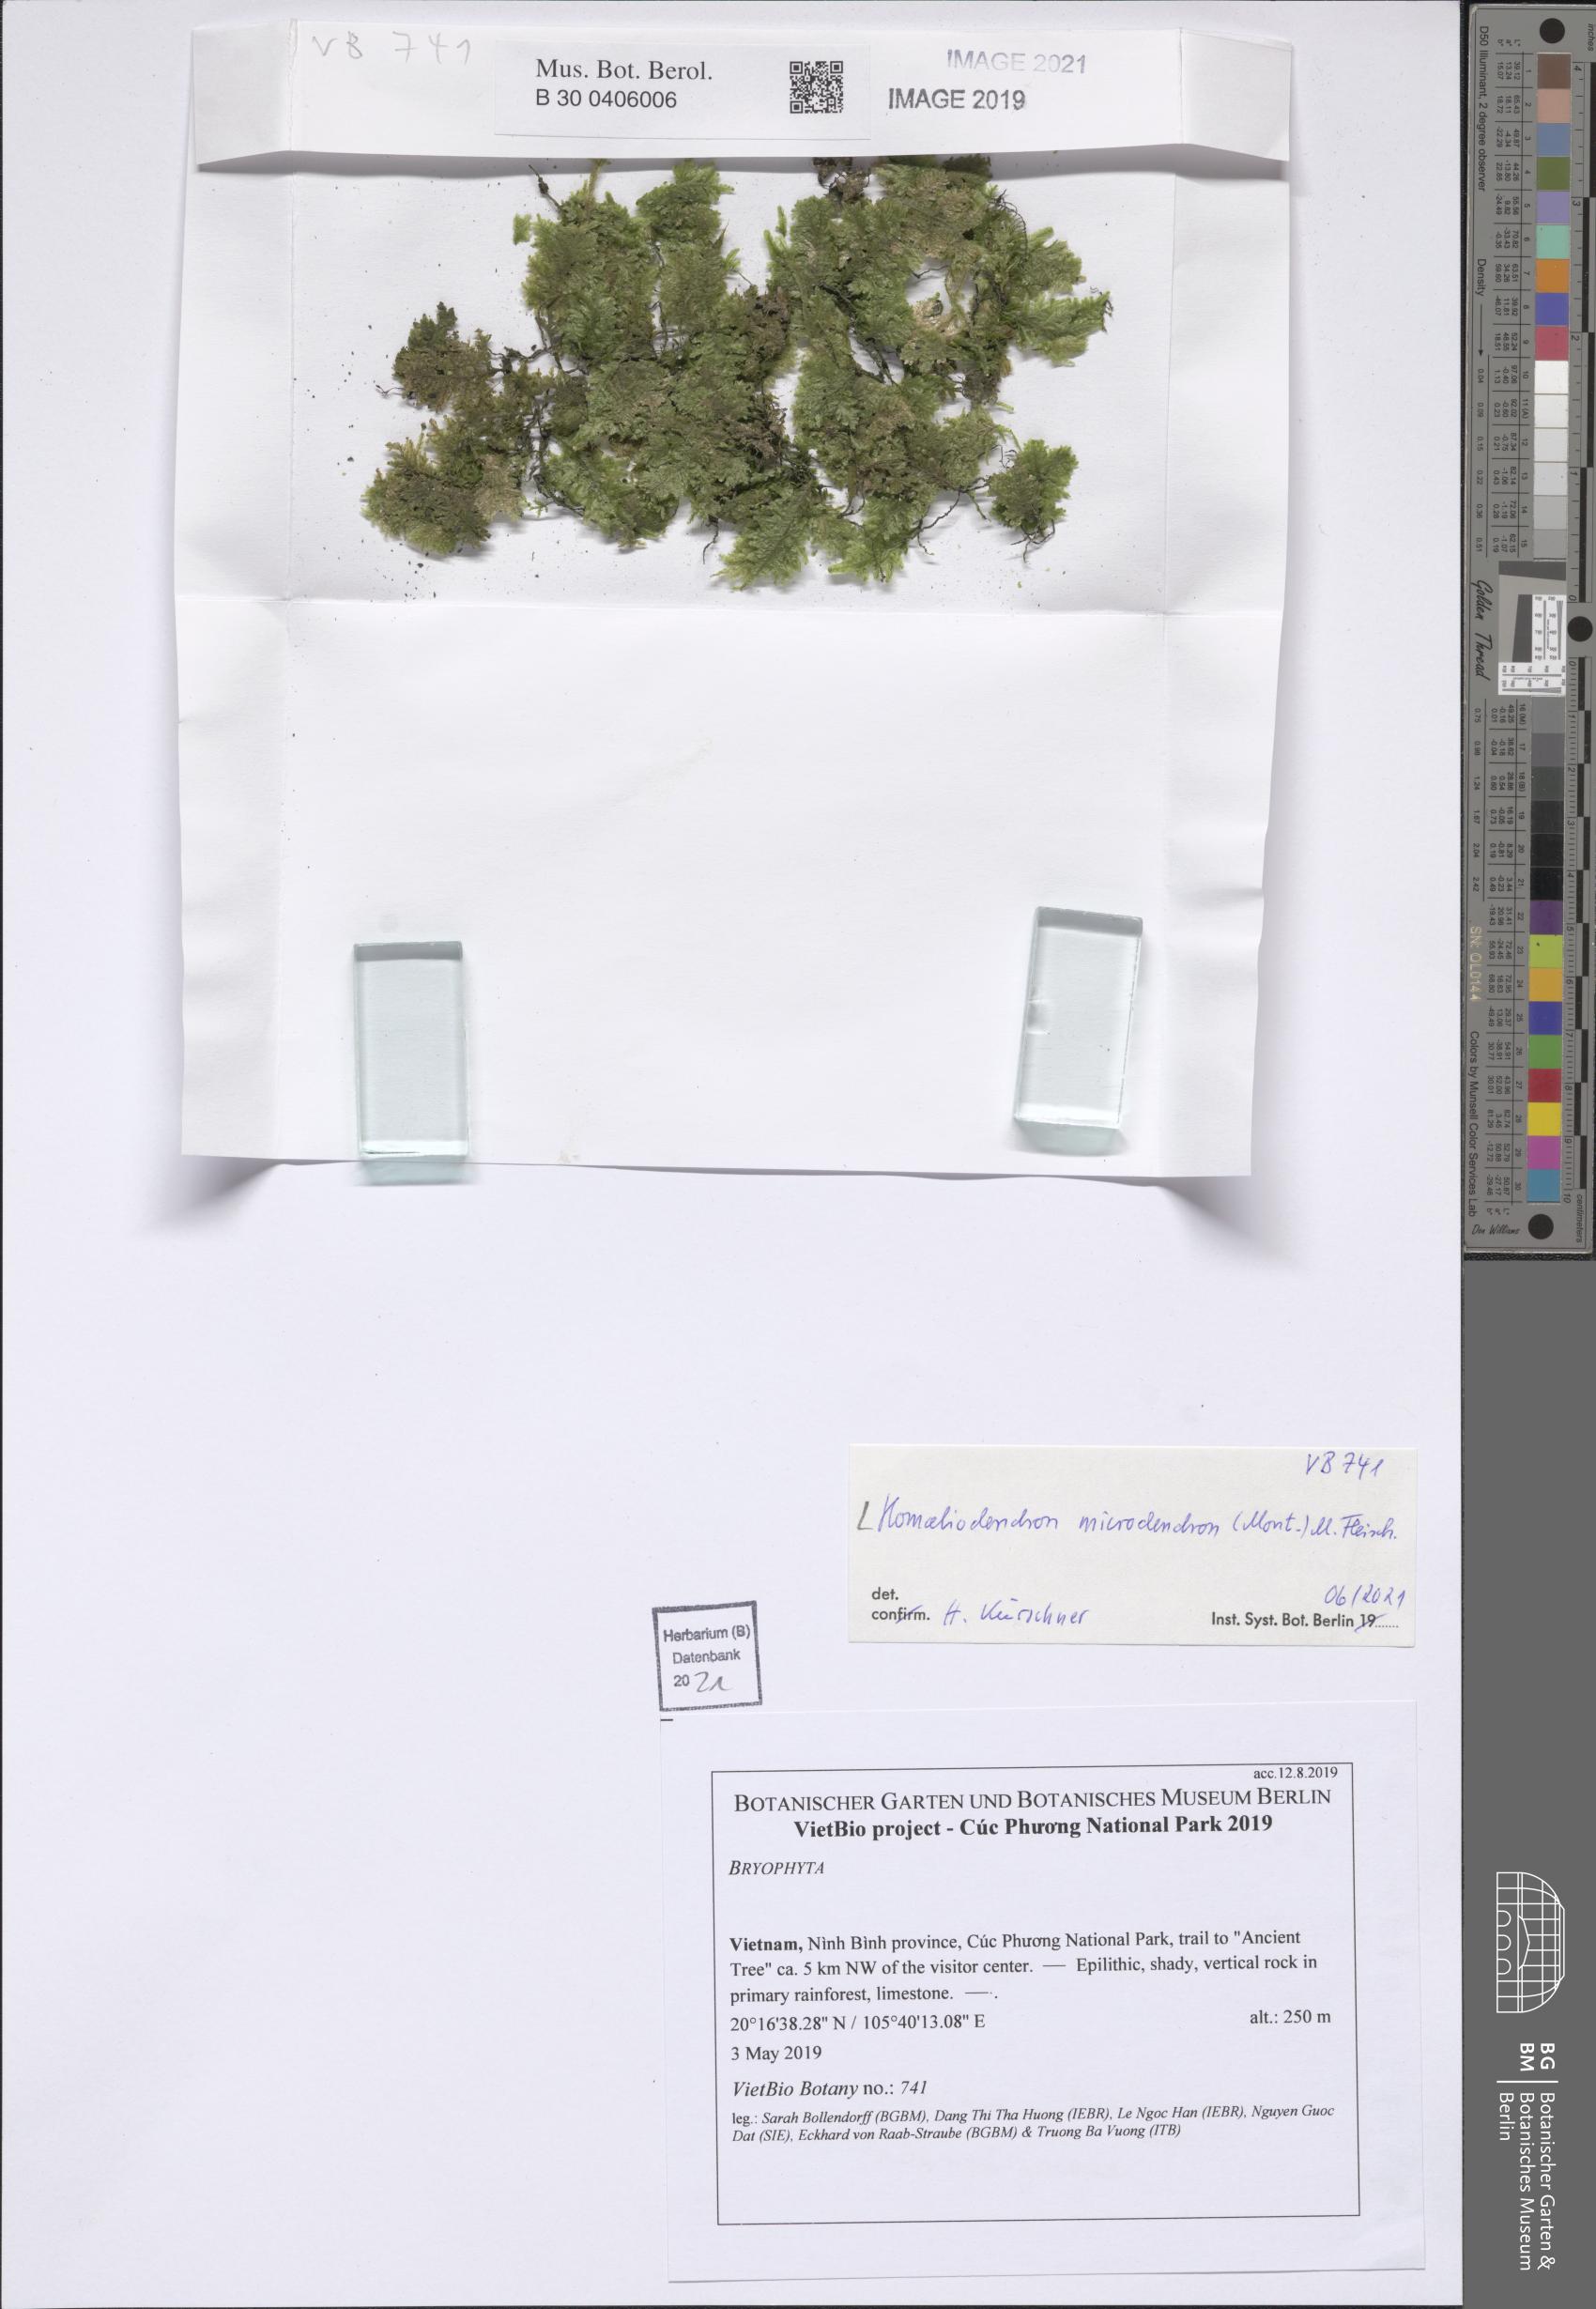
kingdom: Plantae
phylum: Bryophyta
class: Bryopsida
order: Hypnales
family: Neckeraceae
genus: Circulifolium
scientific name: Circulifolium microdendron
